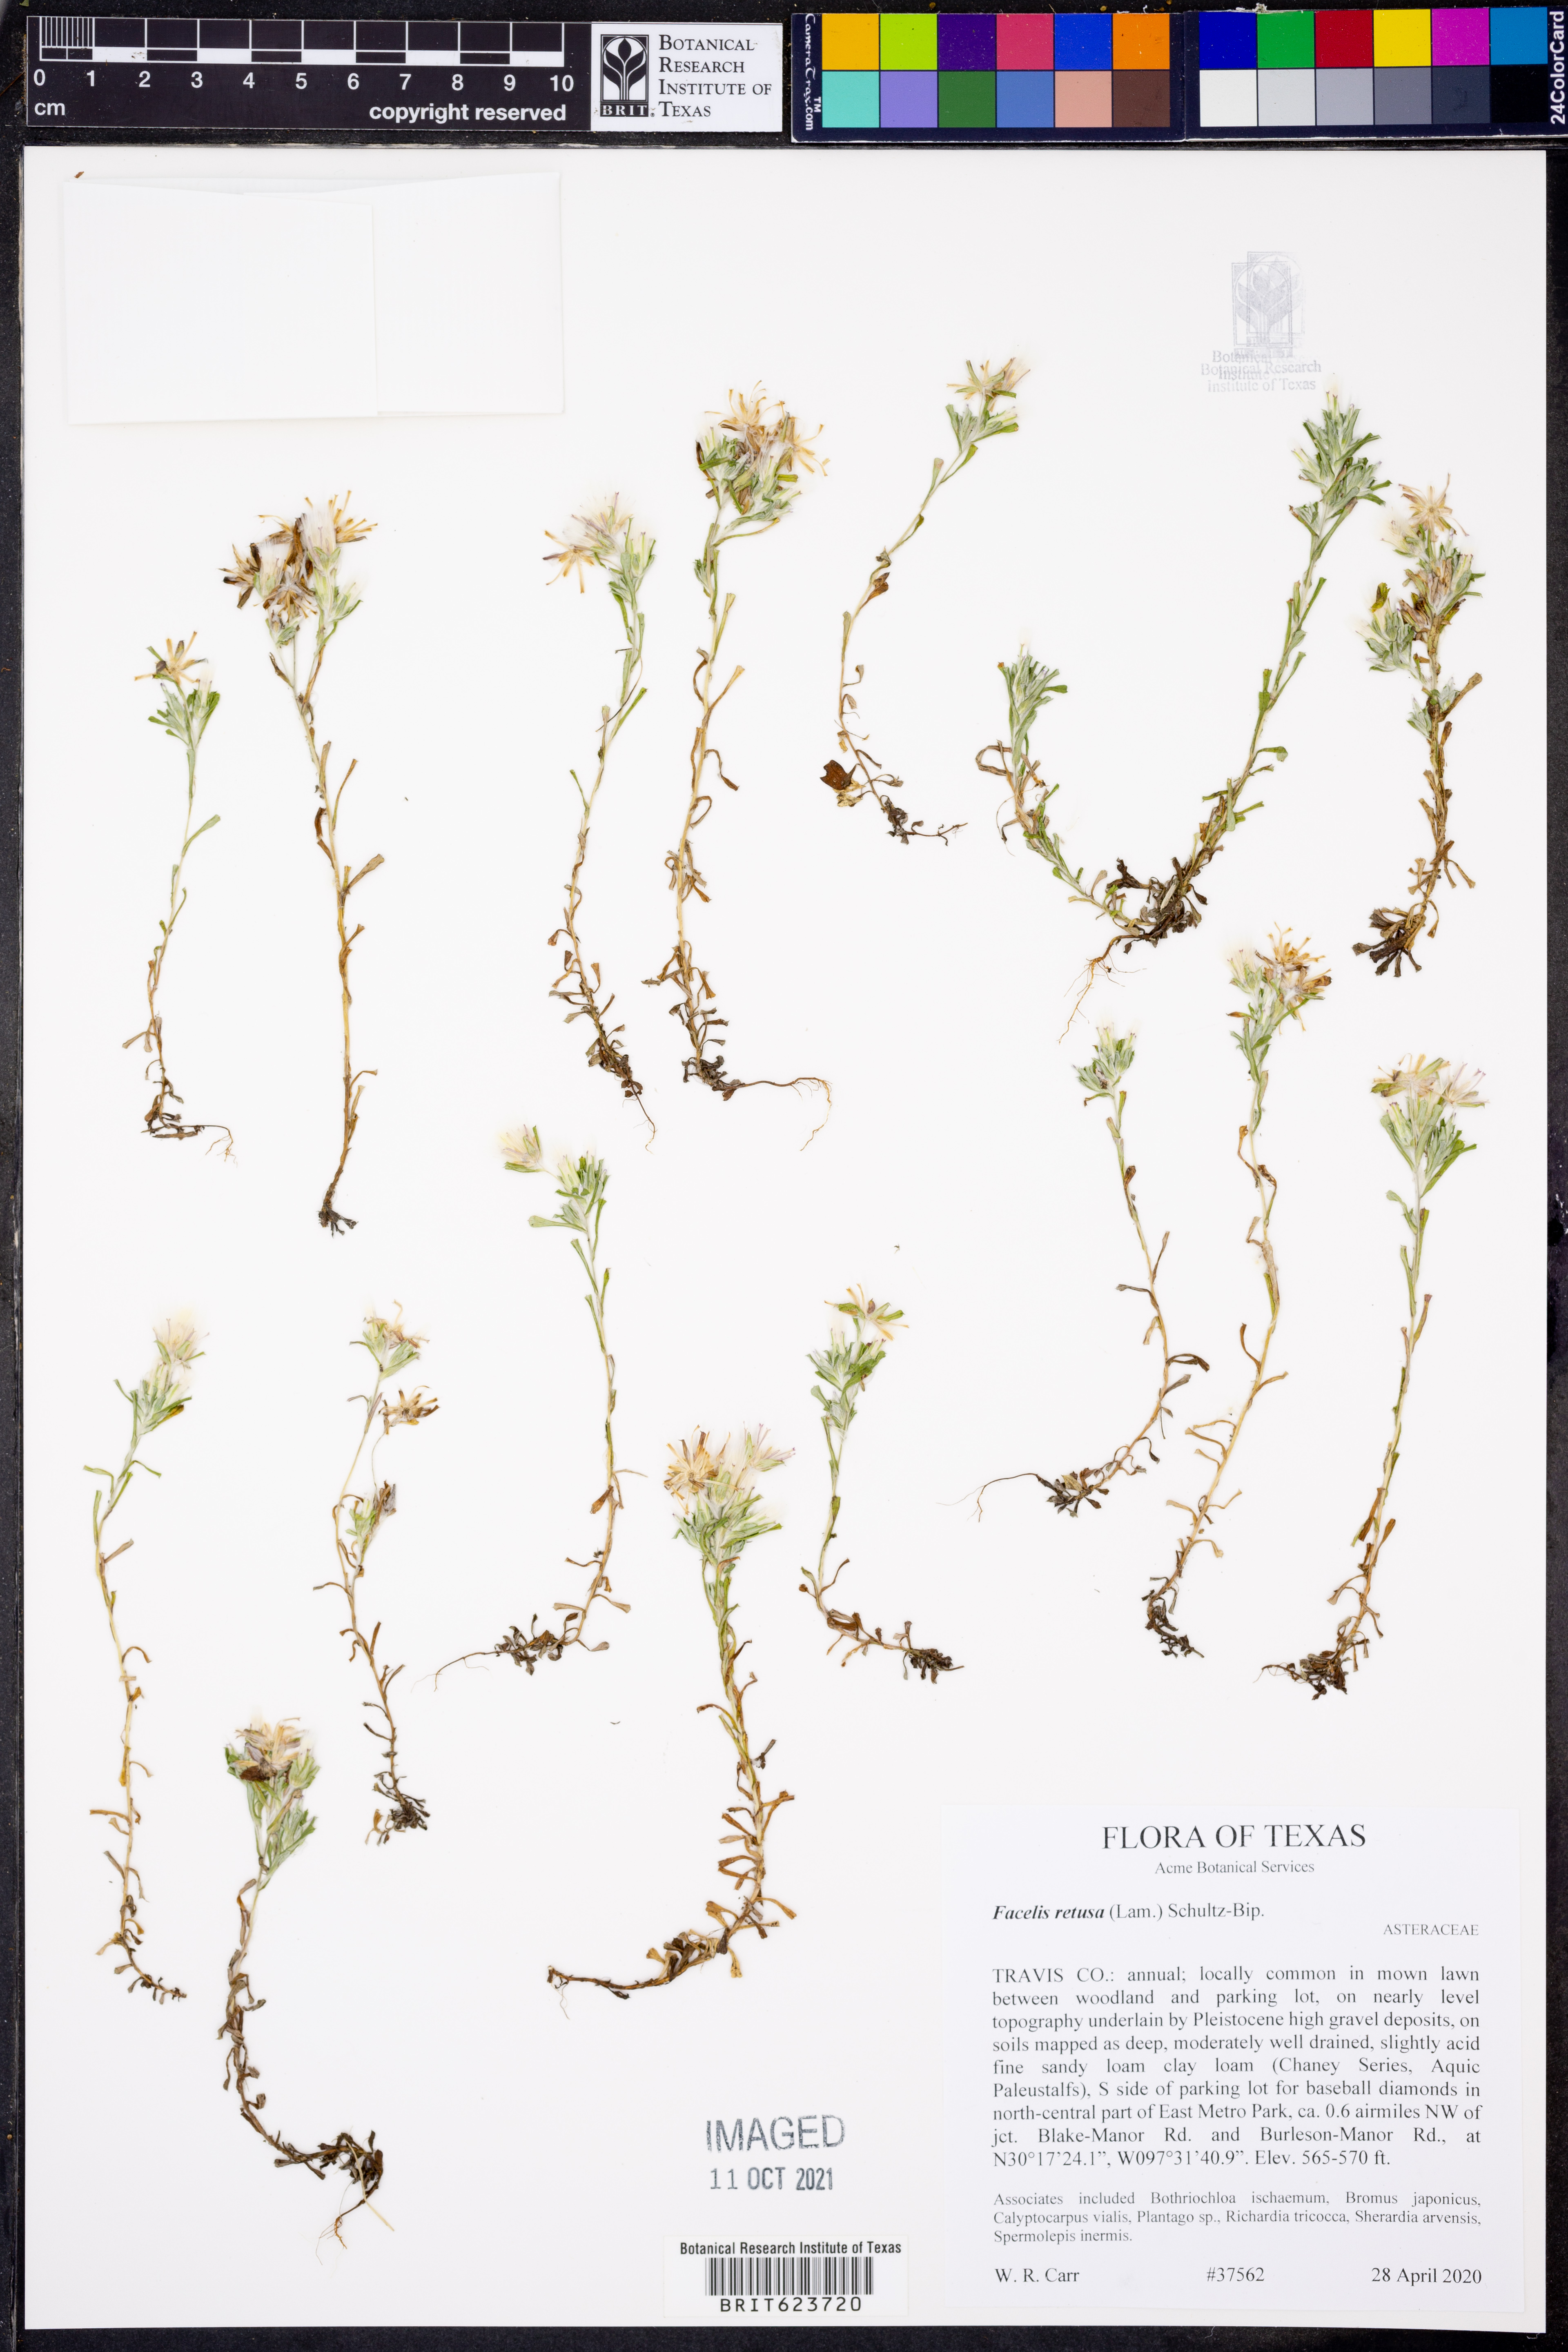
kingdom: Plantae
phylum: Tracheophyta
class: Magnoliopsida
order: Asterales
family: Asteraceae
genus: Facelis
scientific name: Facelis retusa
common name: Annual trampweed
